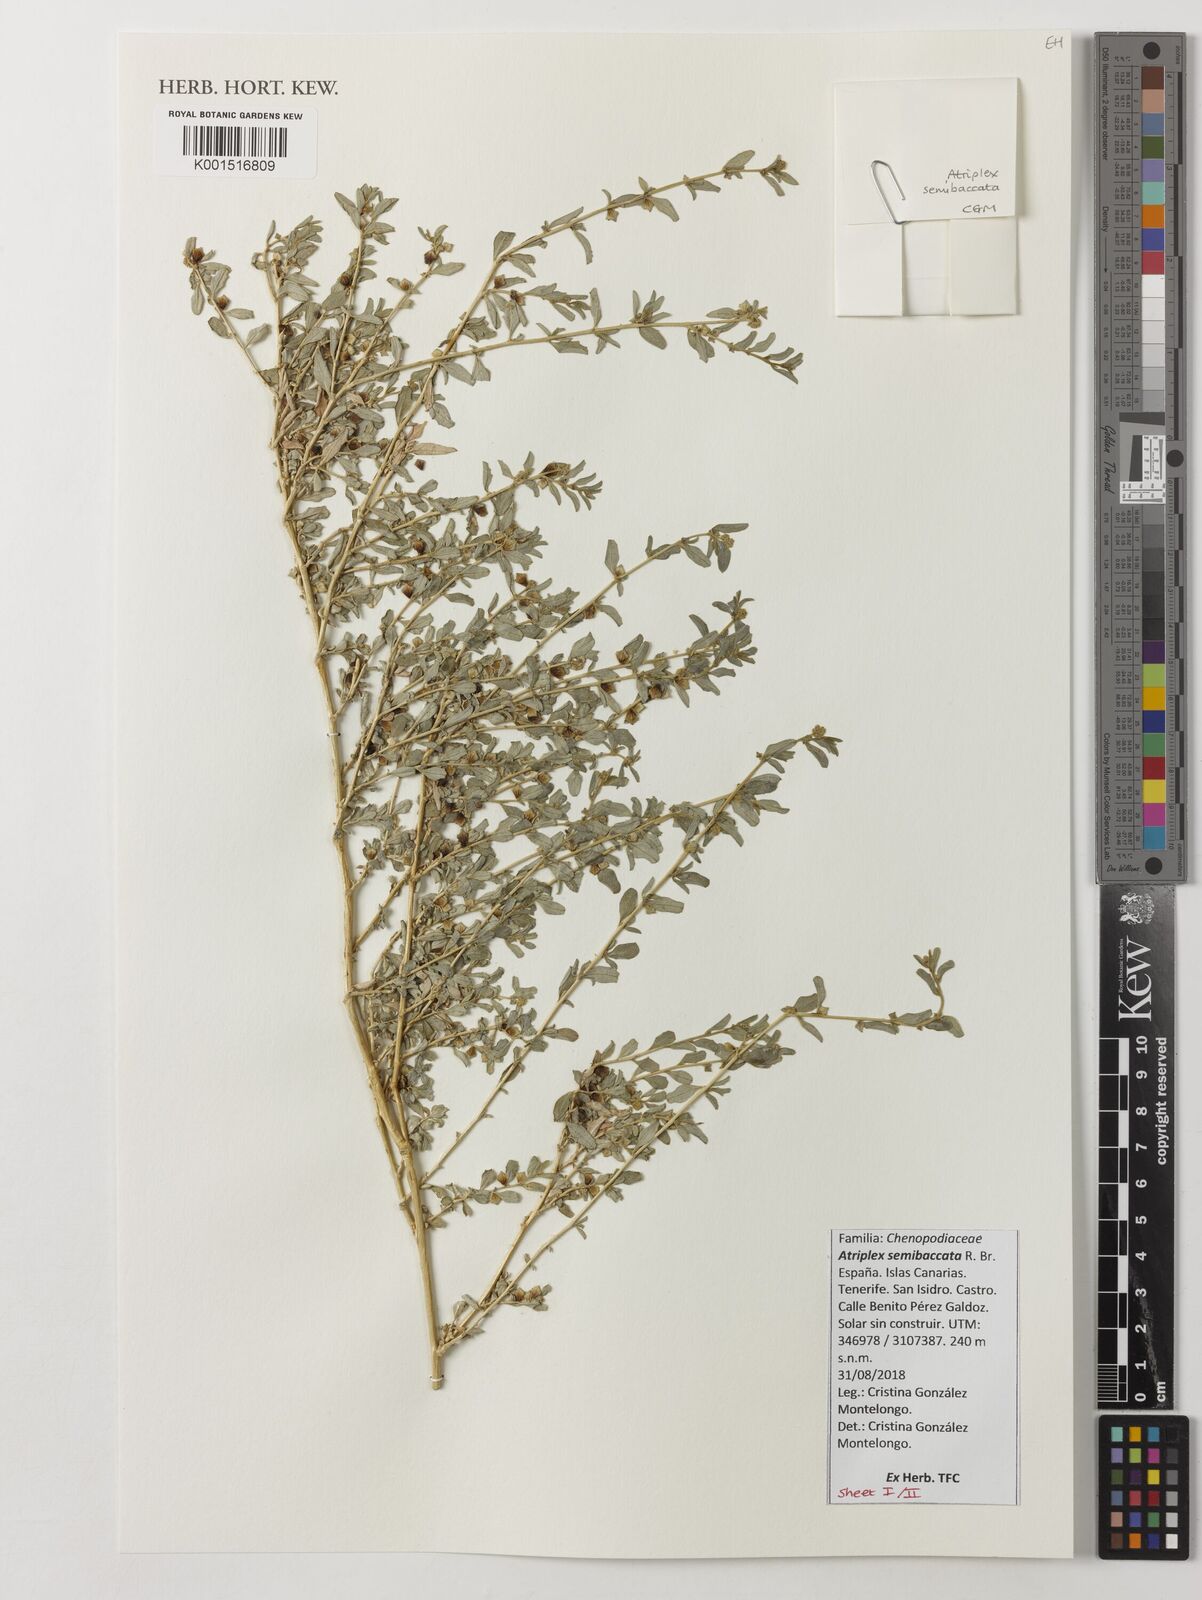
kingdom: Plantae
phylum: Tracheophyta
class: Magnoliopsida
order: Caryophyllales
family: Amaranthaceae
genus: Atriplex
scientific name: Atriplex semibaccata
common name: Australian saltbush
